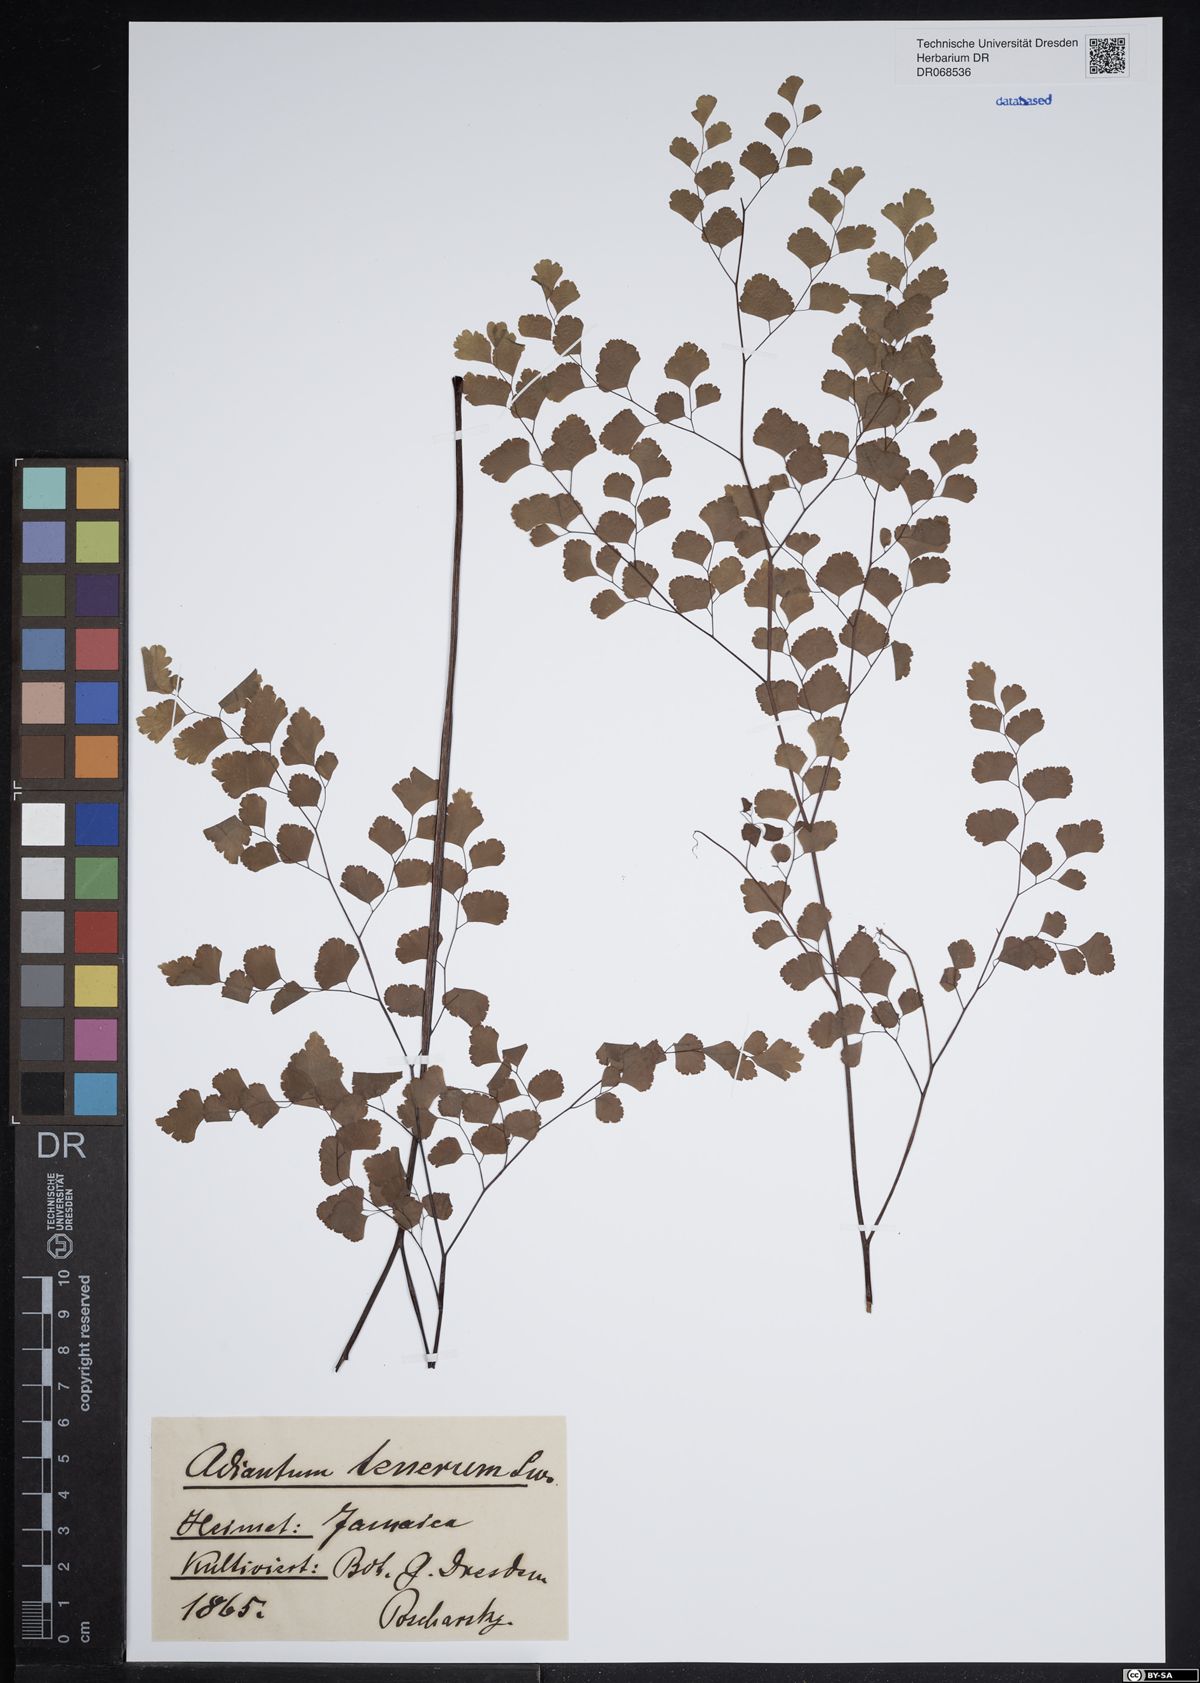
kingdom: Plantae
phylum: Tracheophyta
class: Polypodiopsida
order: Polypodiales
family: Pteridaceae
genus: Adiantum
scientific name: Adiantum tenerum
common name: Fan maidenhair
